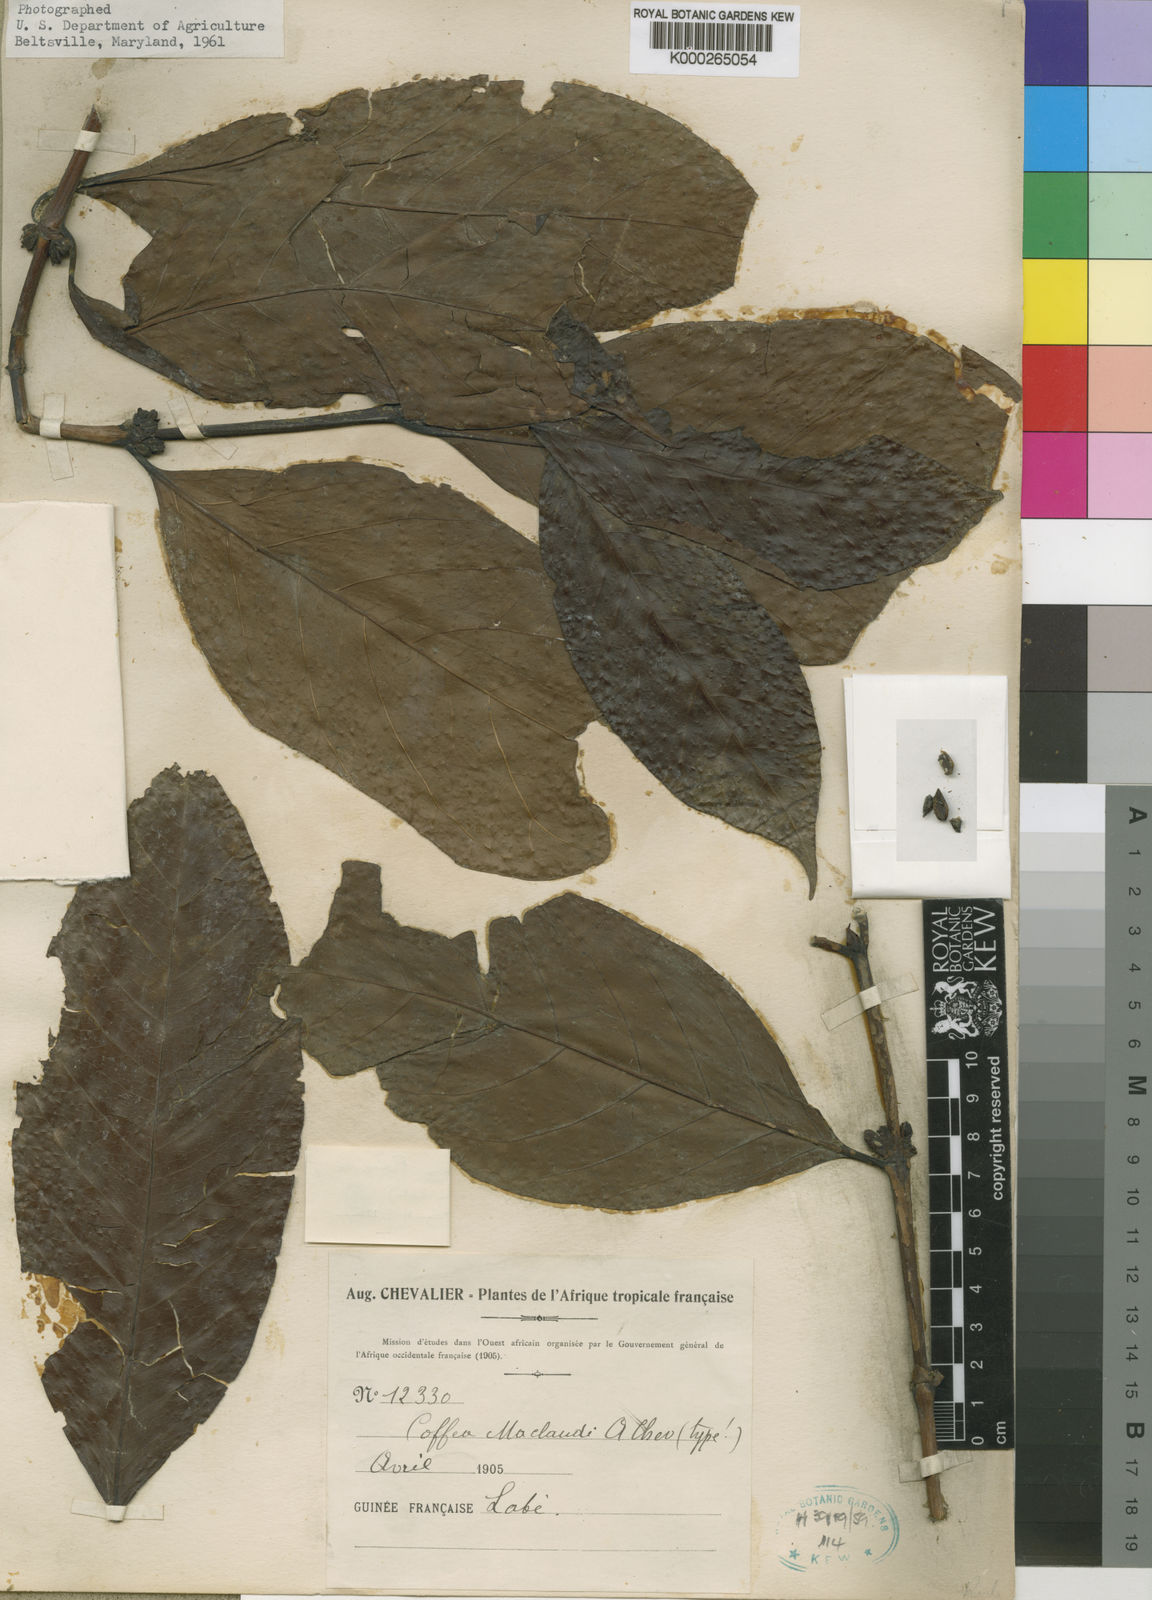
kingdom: Plantae
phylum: Tracheophyta
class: Magnoliopsida
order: Gentianales
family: Rubiaceae
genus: Coffea
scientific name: Coffea canephora
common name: Robusta coffee
